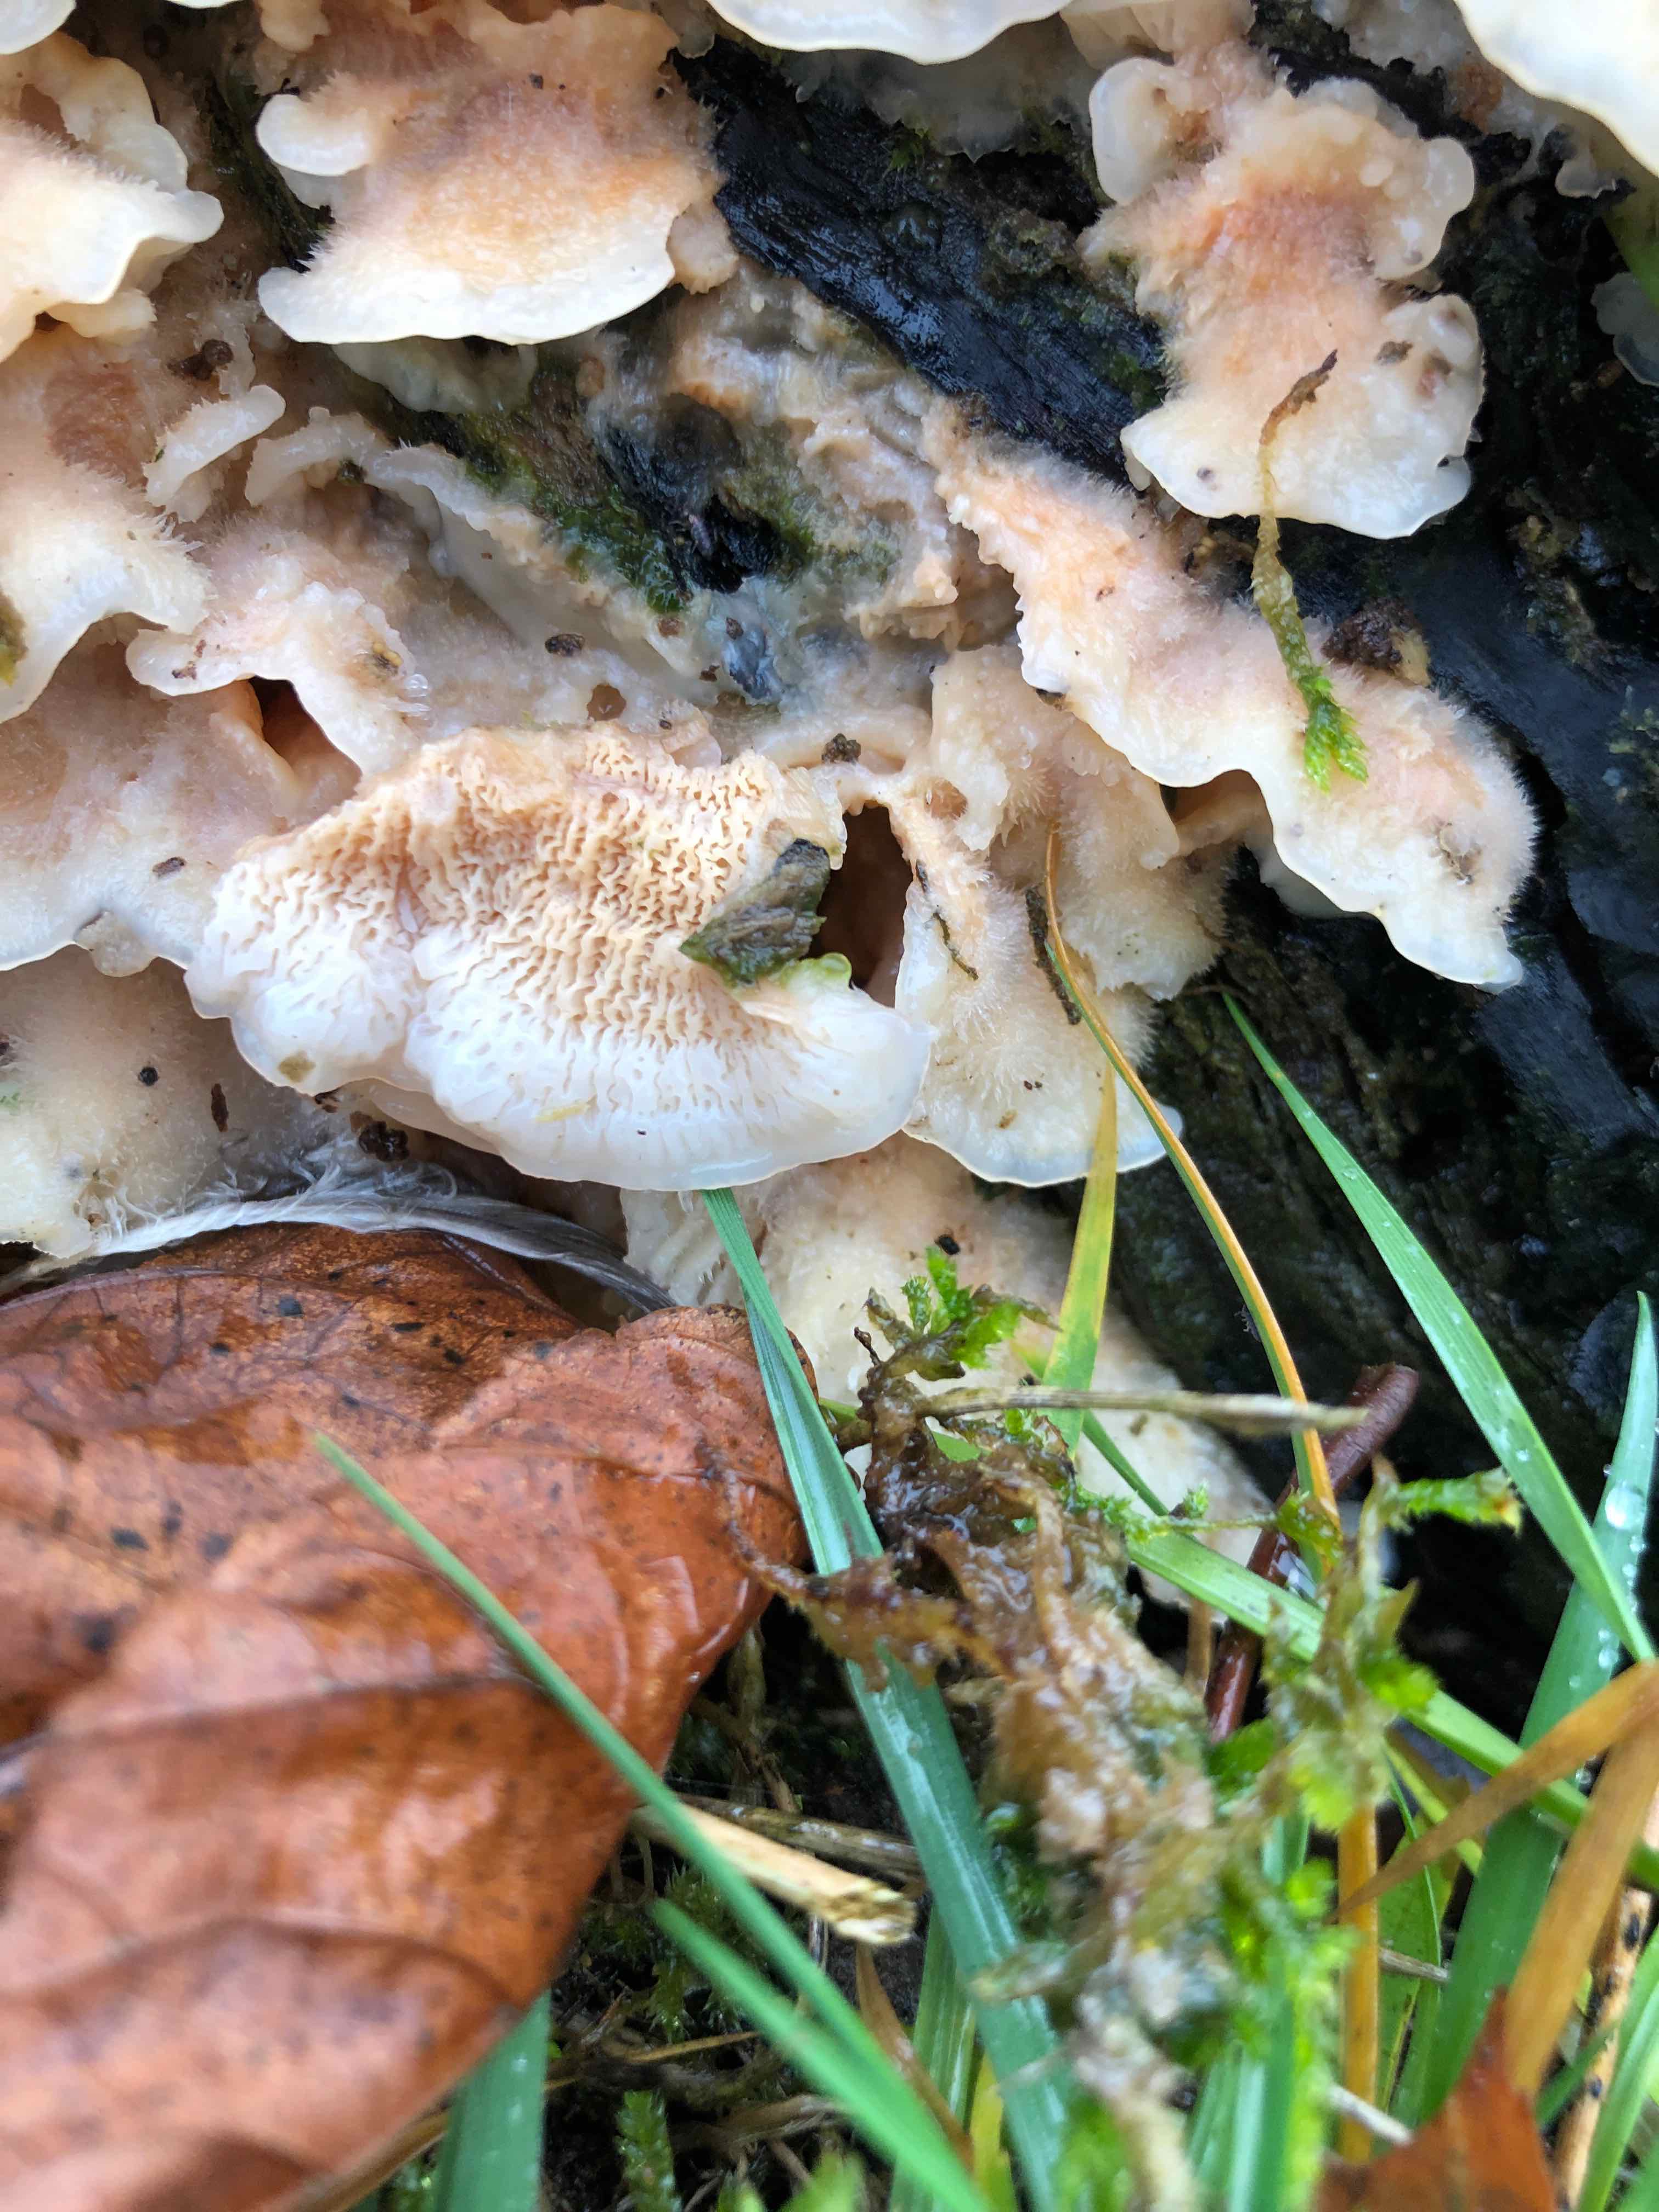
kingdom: Fungi
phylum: Basidiomycota
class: Agaricomycetes
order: Polyporales
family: Meruliaceae
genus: Phlebia
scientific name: Phlebia tremellosa
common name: bævrende åresvamp
